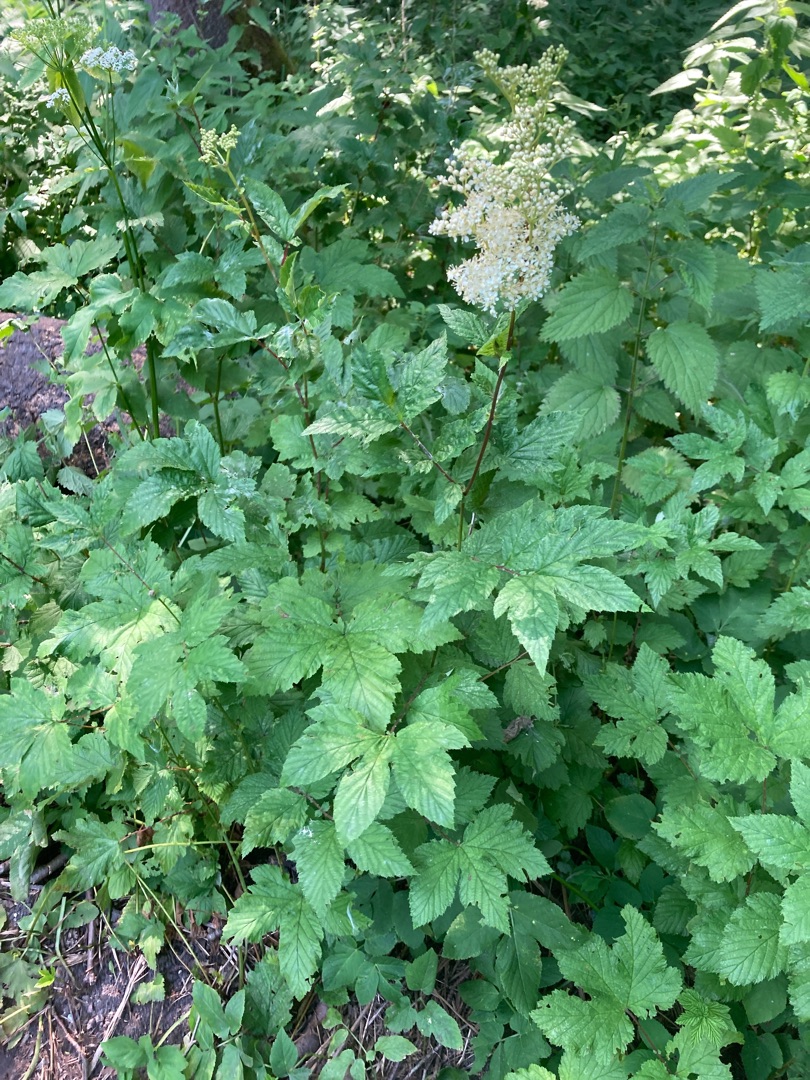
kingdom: Plantae
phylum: Tracheophyta
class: Magnoliopsida
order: Rosales
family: Rosaceae
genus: Filipendula
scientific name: Filipendula ulmaria
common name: Almindelig mjødurt
